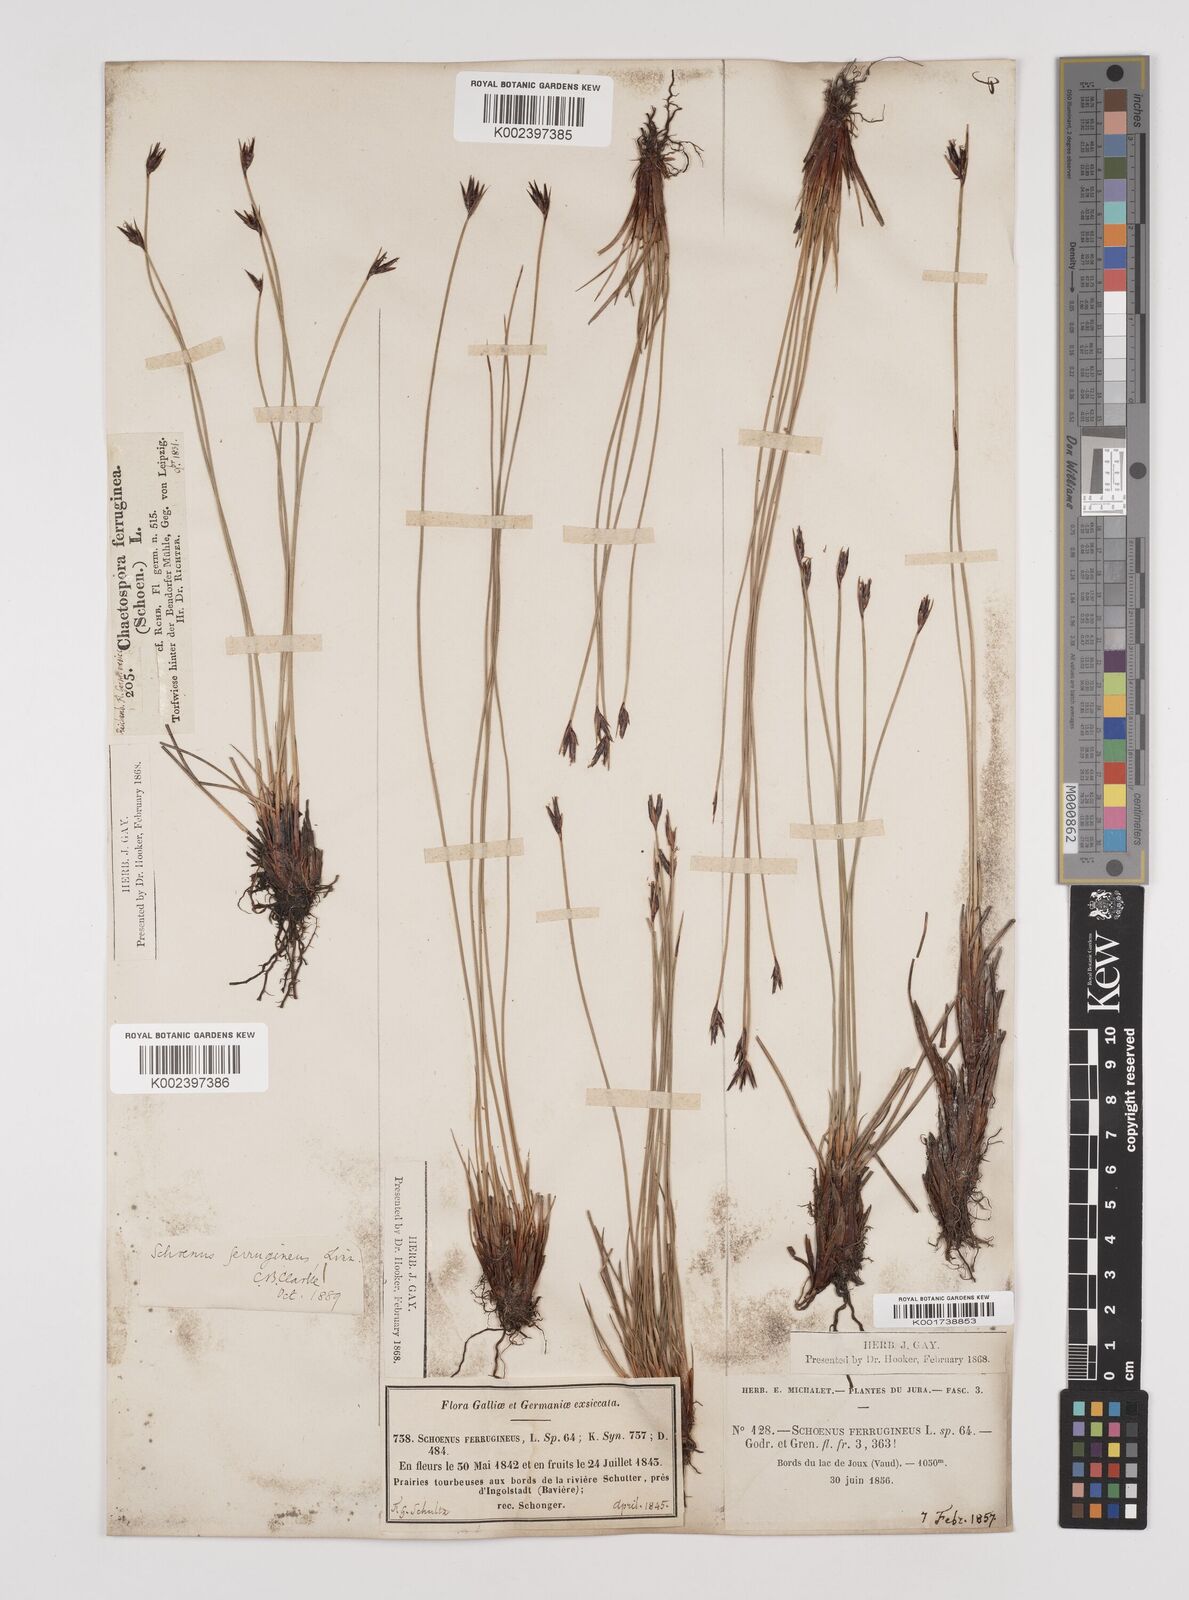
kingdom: Plantae
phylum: Tracheophyta
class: Liliopsida
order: Poales
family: Cyperaceae
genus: Schoenus
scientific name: Schoenus ferrugineus
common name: Brown bog-rush
